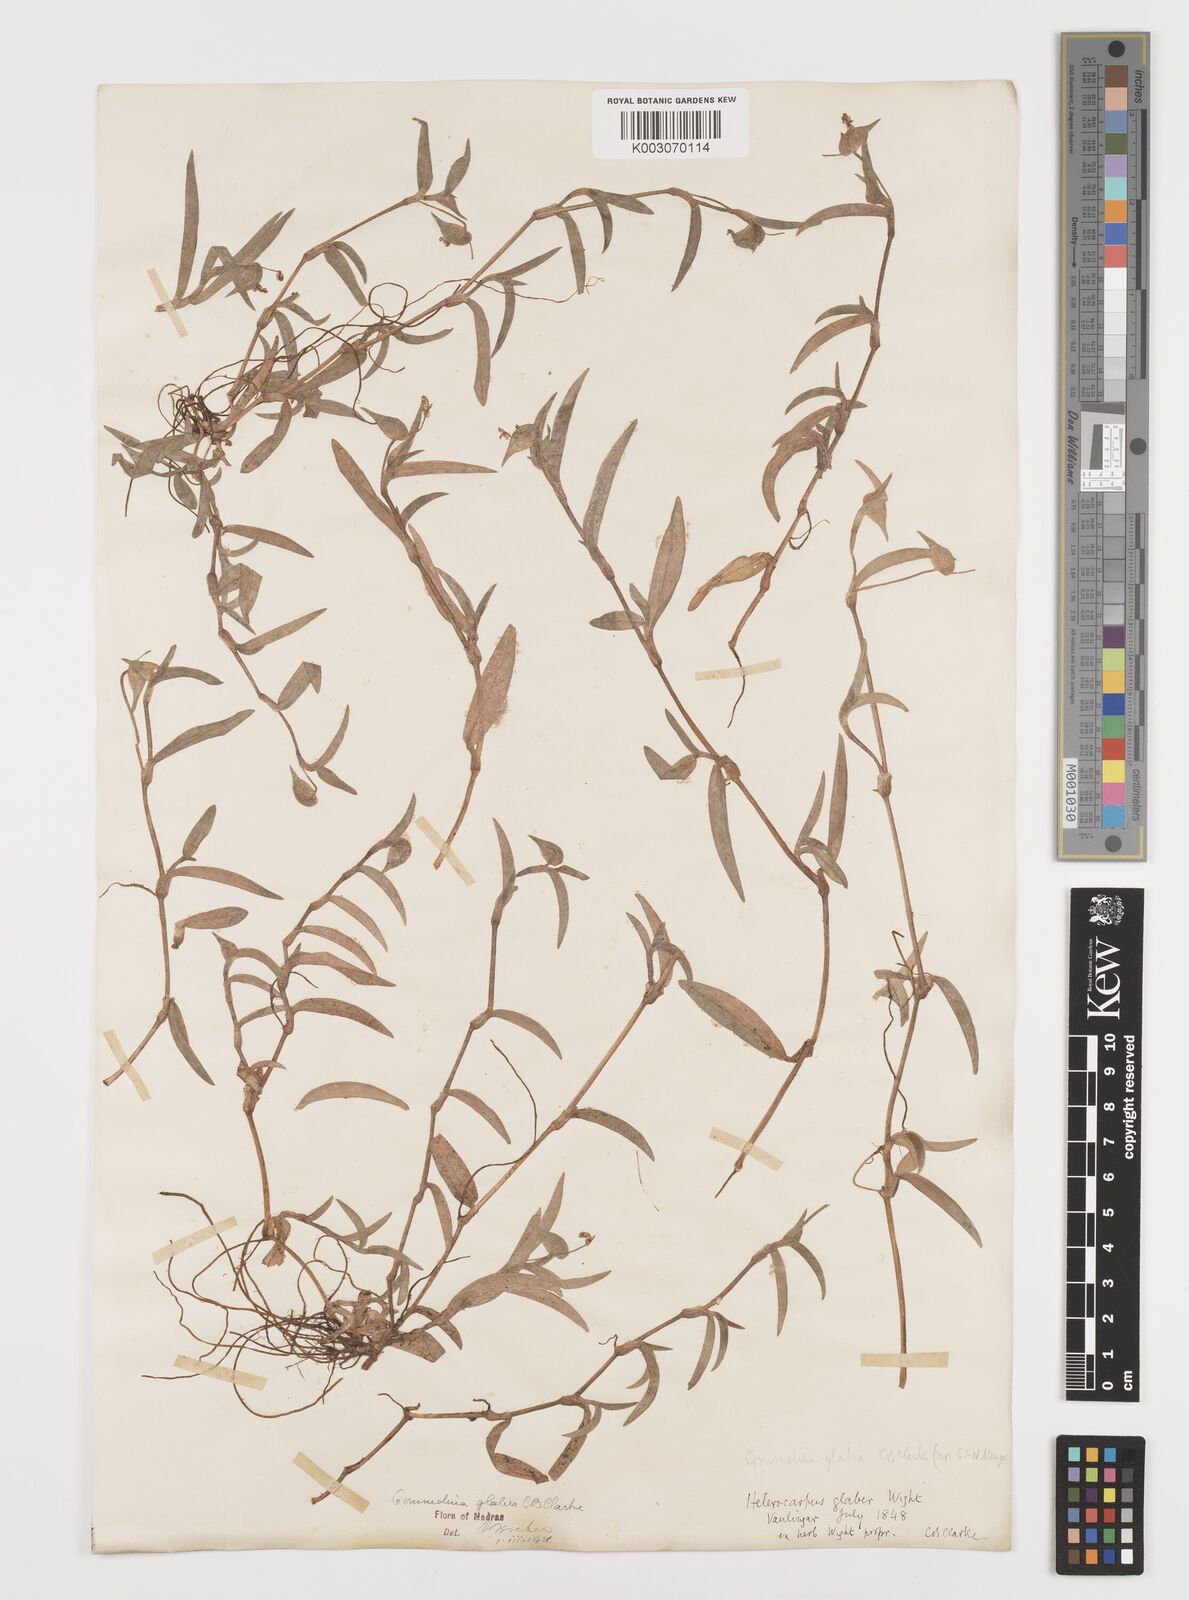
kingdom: Plantae
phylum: Tracheophyta
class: Liliopsida
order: Commelinales
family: Commelinaceae
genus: Commelina
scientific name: Commelina wightii
